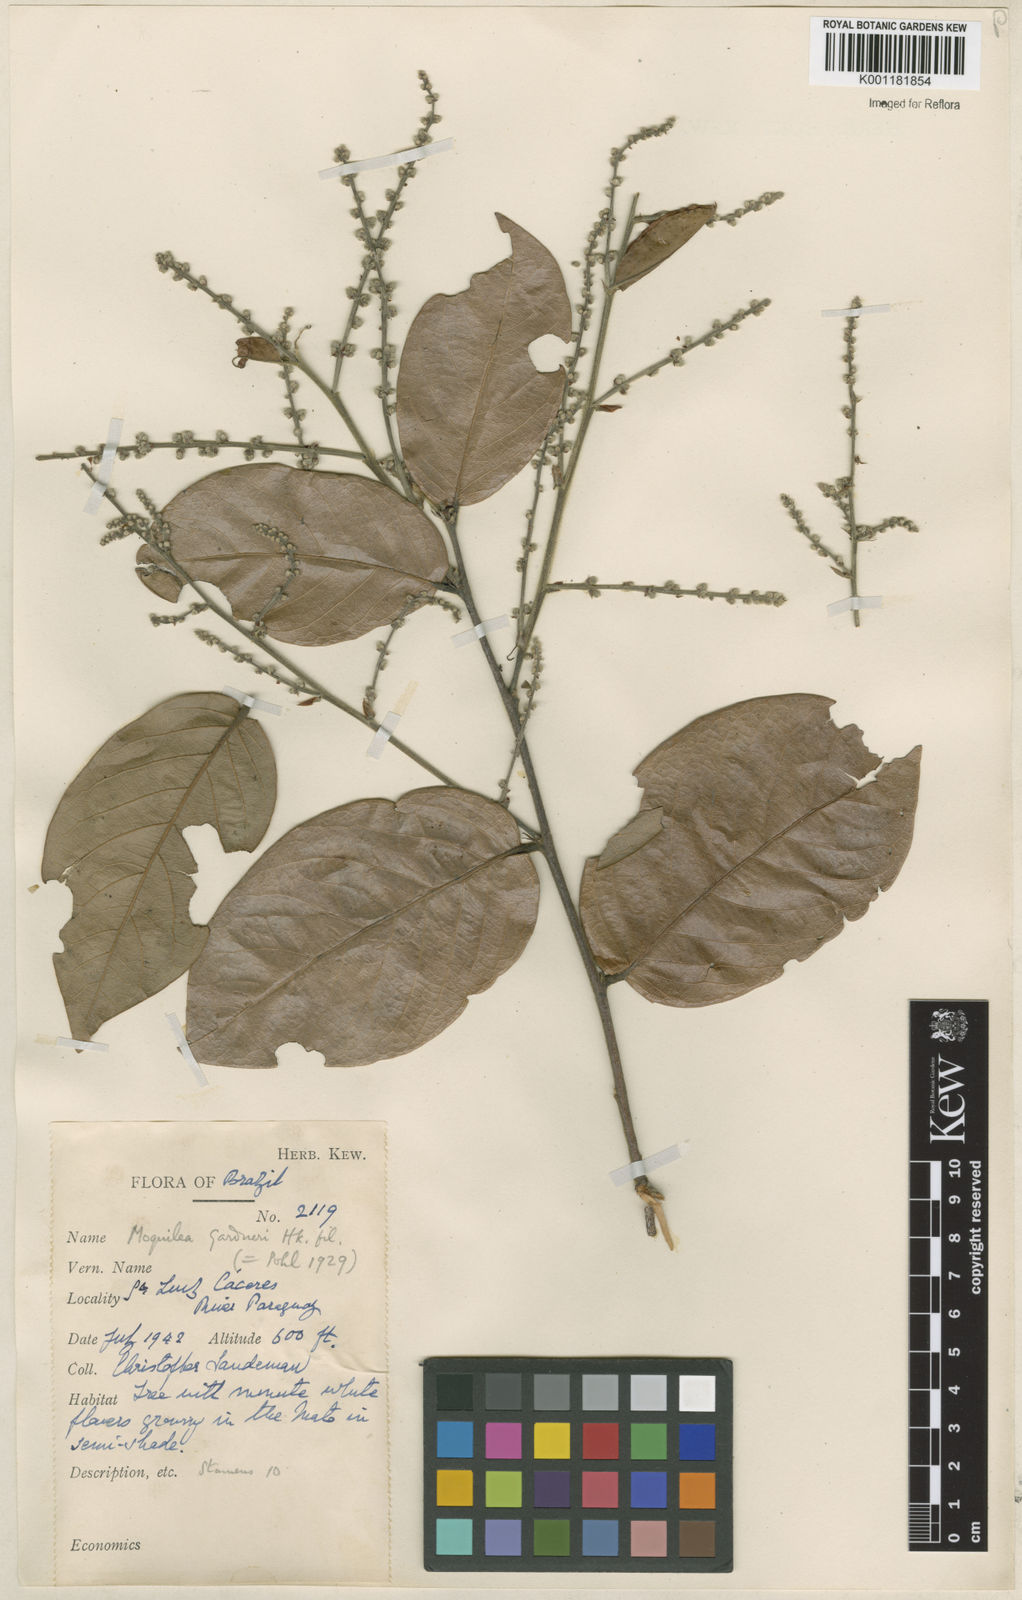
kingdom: Plantae
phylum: Tracheophyta
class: Magnoliopsida
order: Malpighiales
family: Chrysobalanaceae
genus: Leptobalanus
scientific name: Leptobalanus gardneri
